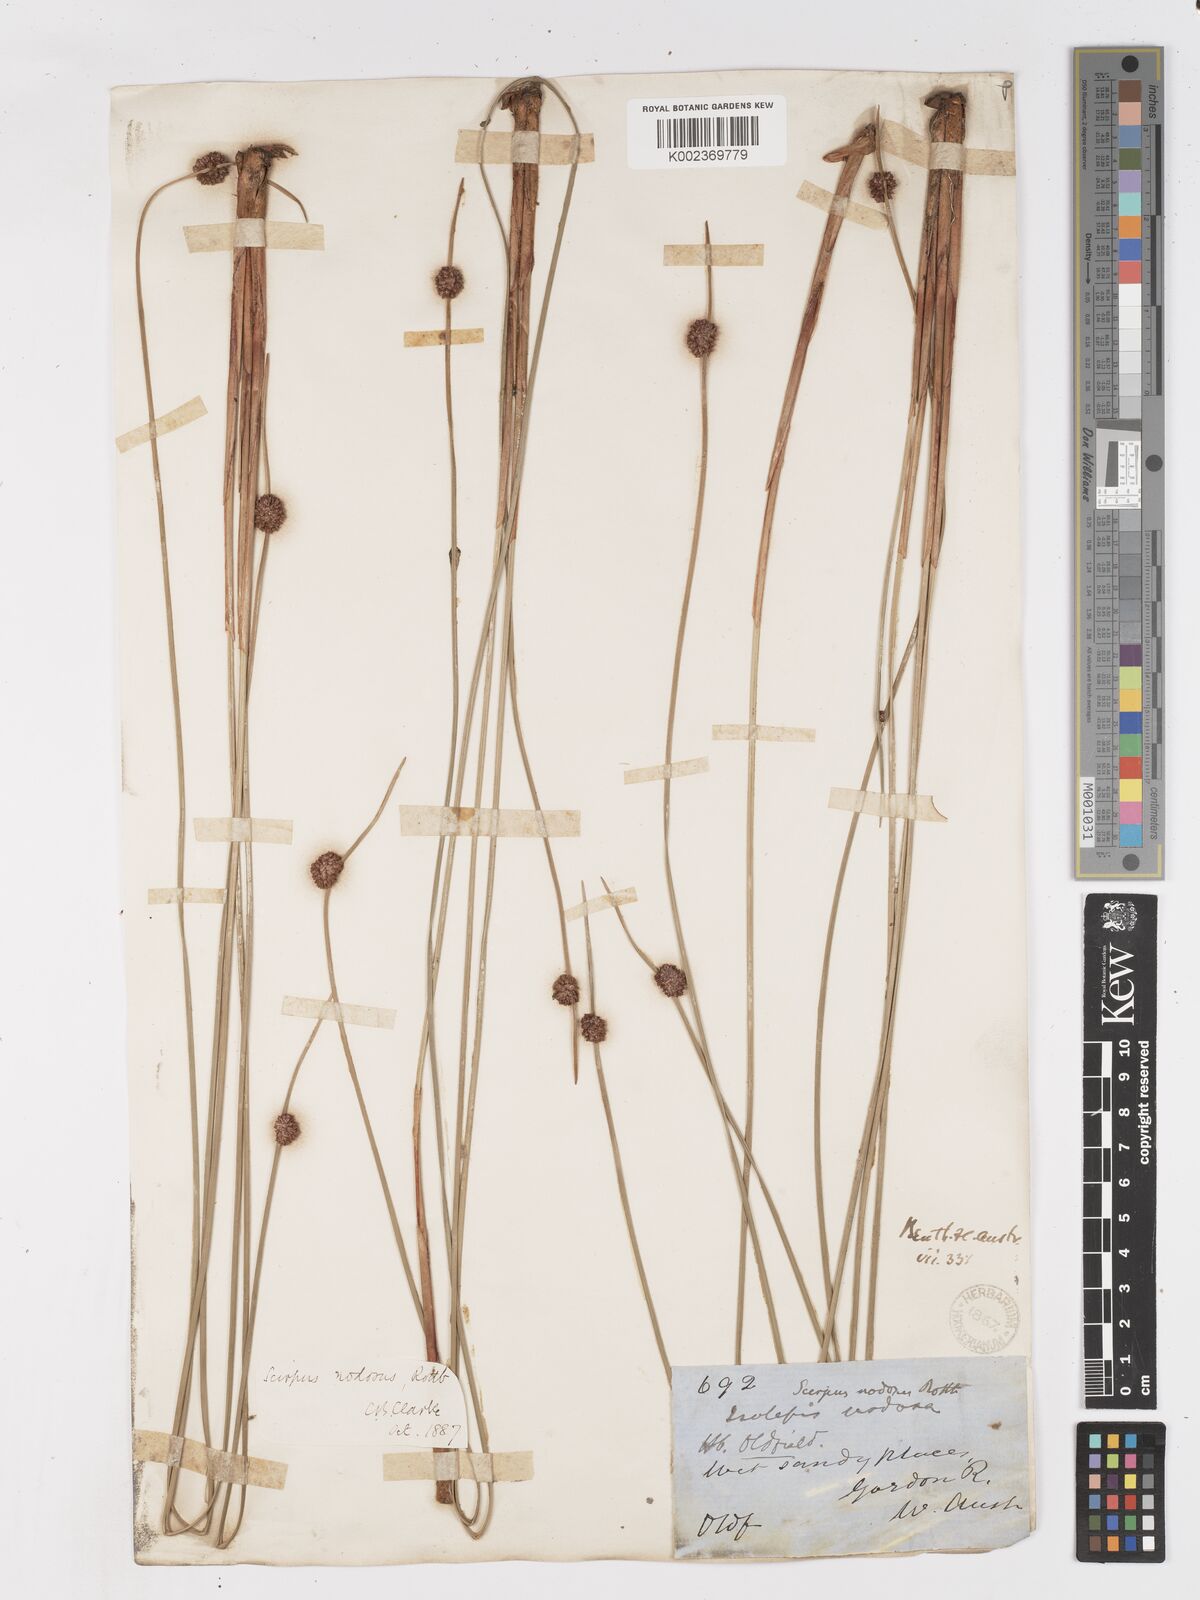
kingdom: Plantae
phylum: Tracheophyta
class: Liliopsida
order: Poales
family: Cyperaceae
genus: Ficinia
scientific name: Ficinia nodosa
